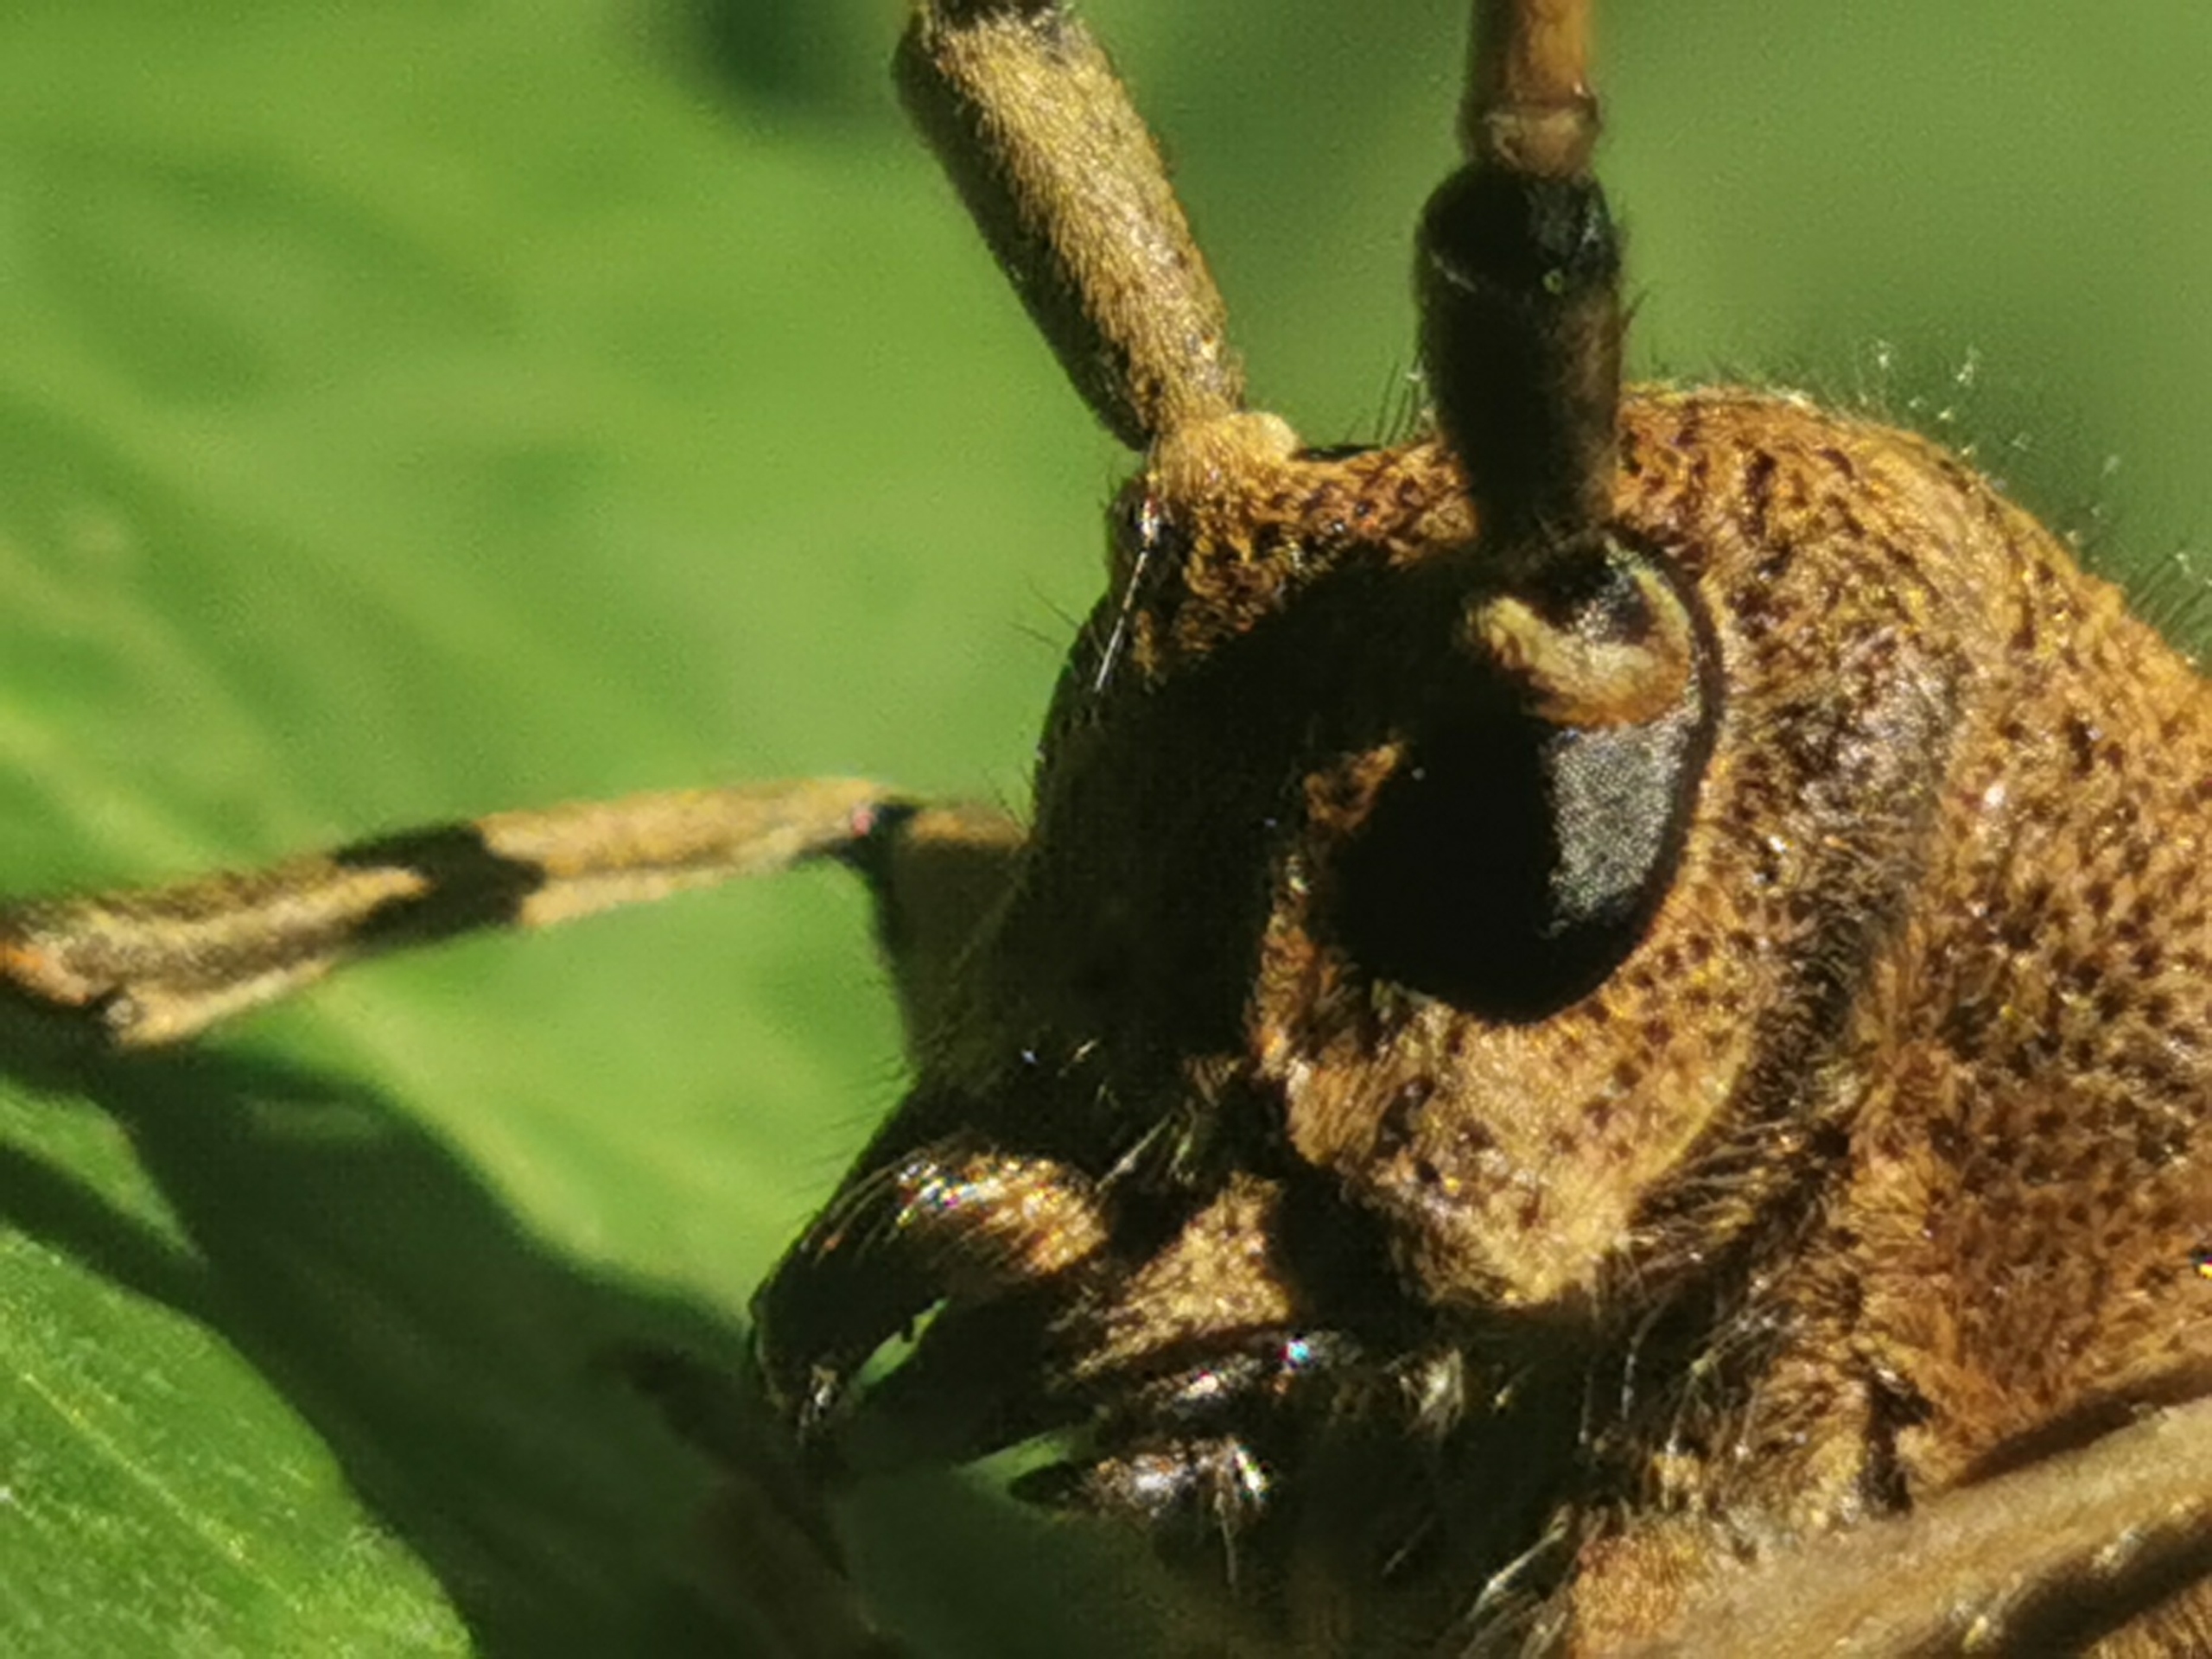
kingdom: Animalia
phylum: Arthropoda
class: Insecta
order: Coleoptera
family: Cerambycidae
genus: Saperda
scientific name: Saperda carcharias
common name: Poppelbuk
